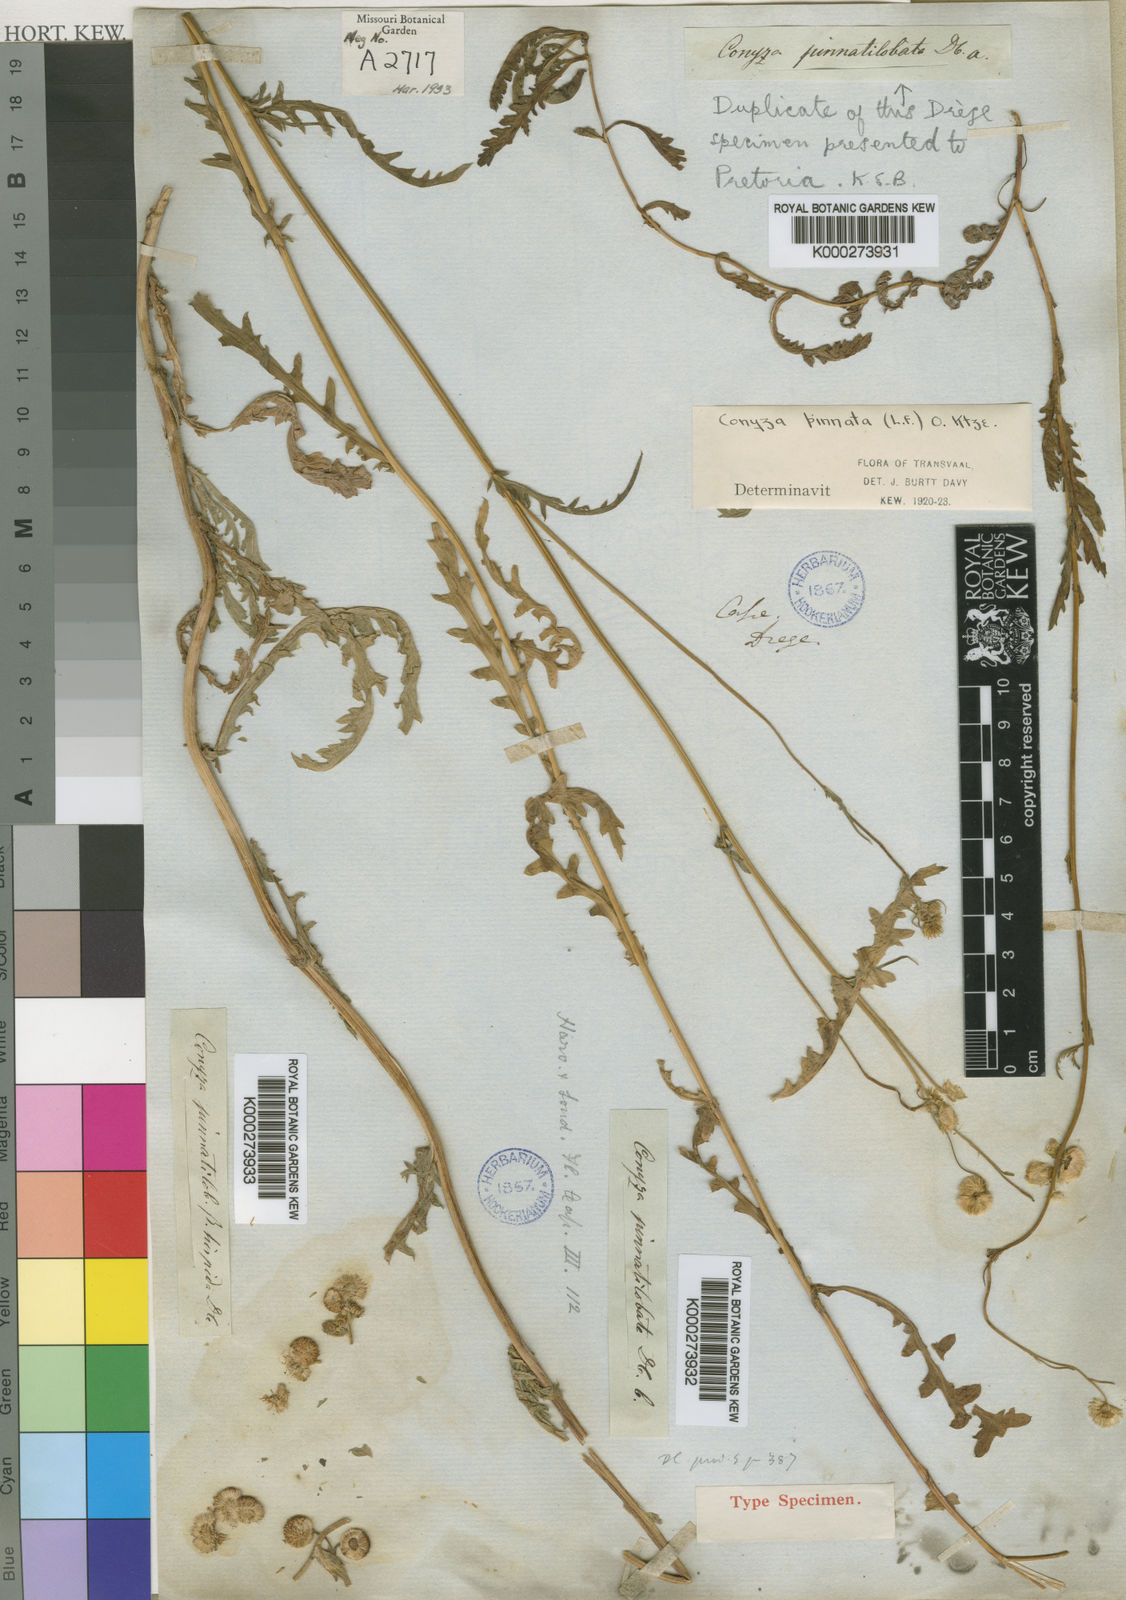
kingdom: Plantae
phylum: Tracheophyta
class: Magnoliopsida
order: Asterales
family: Asteraceae
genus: Nidorella
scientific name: Nidorella pinnata
